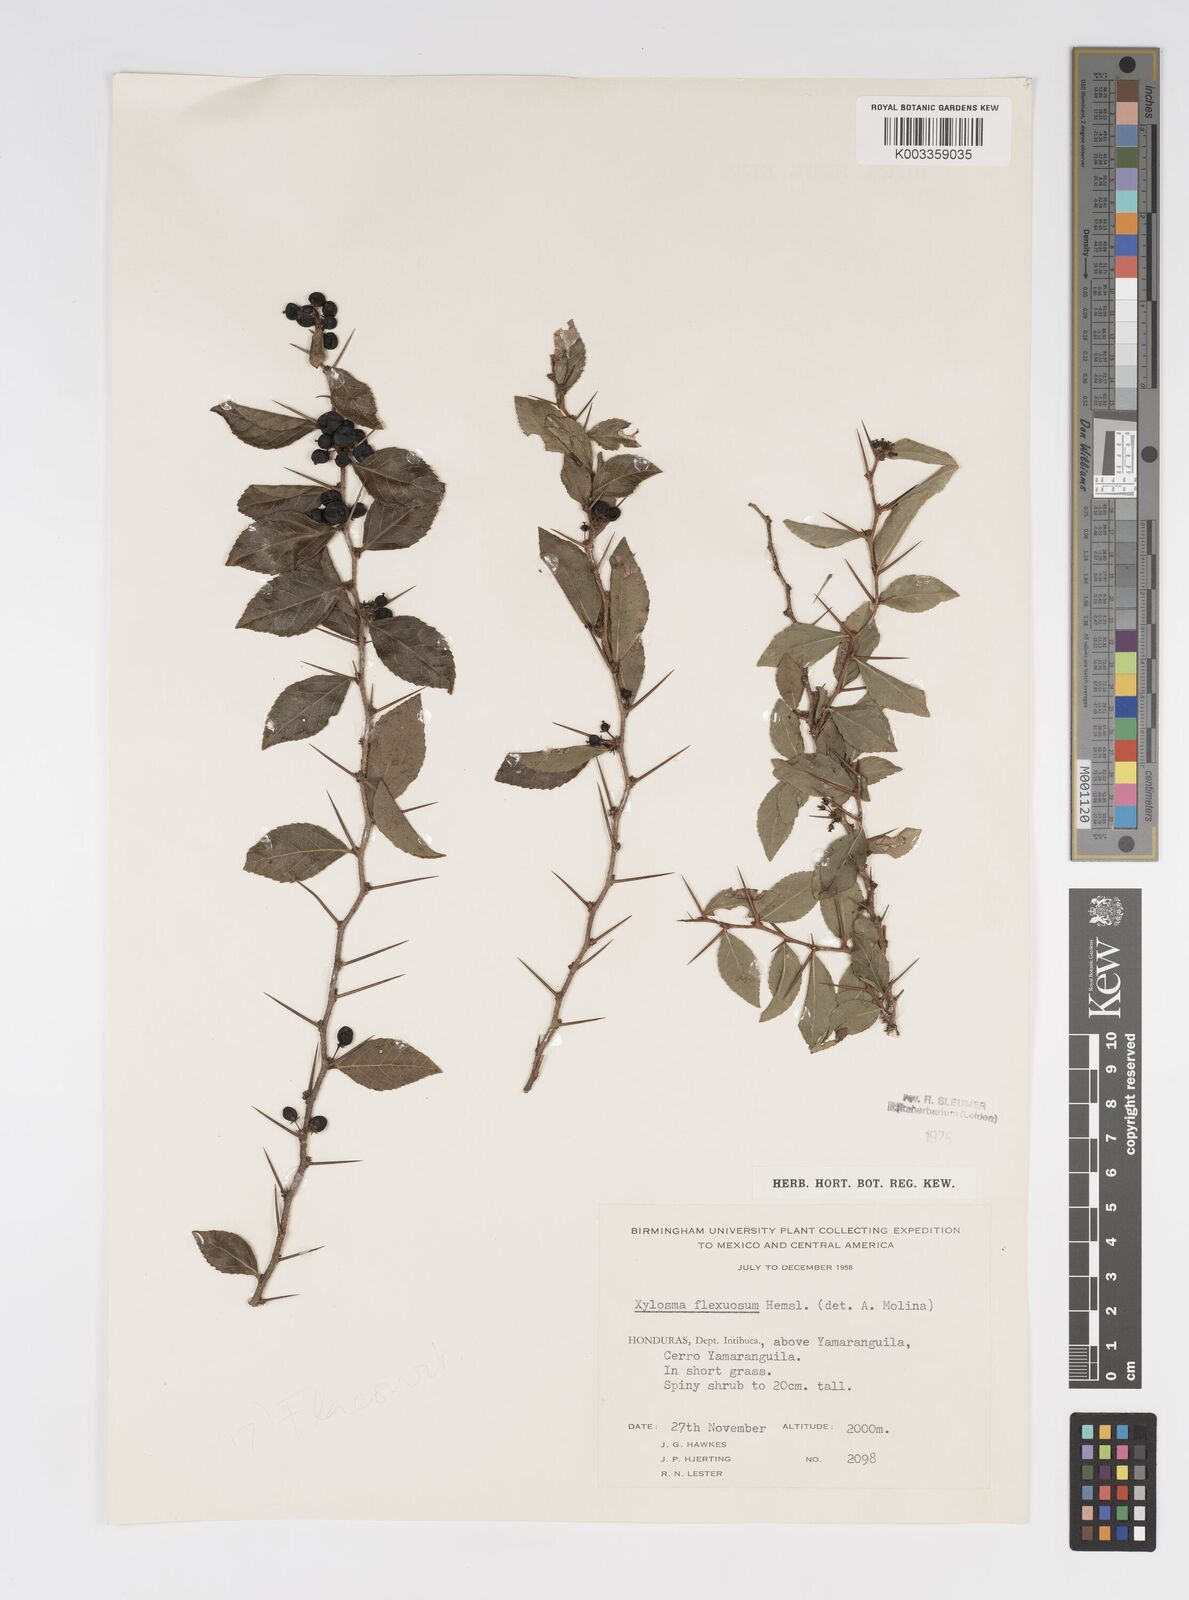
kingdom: Plantae
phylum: Tracheophyta
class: Magnoliopsida
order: Malpighiales
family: Salicaceae
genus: Xylosma
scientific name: Xylosma flexuosa
